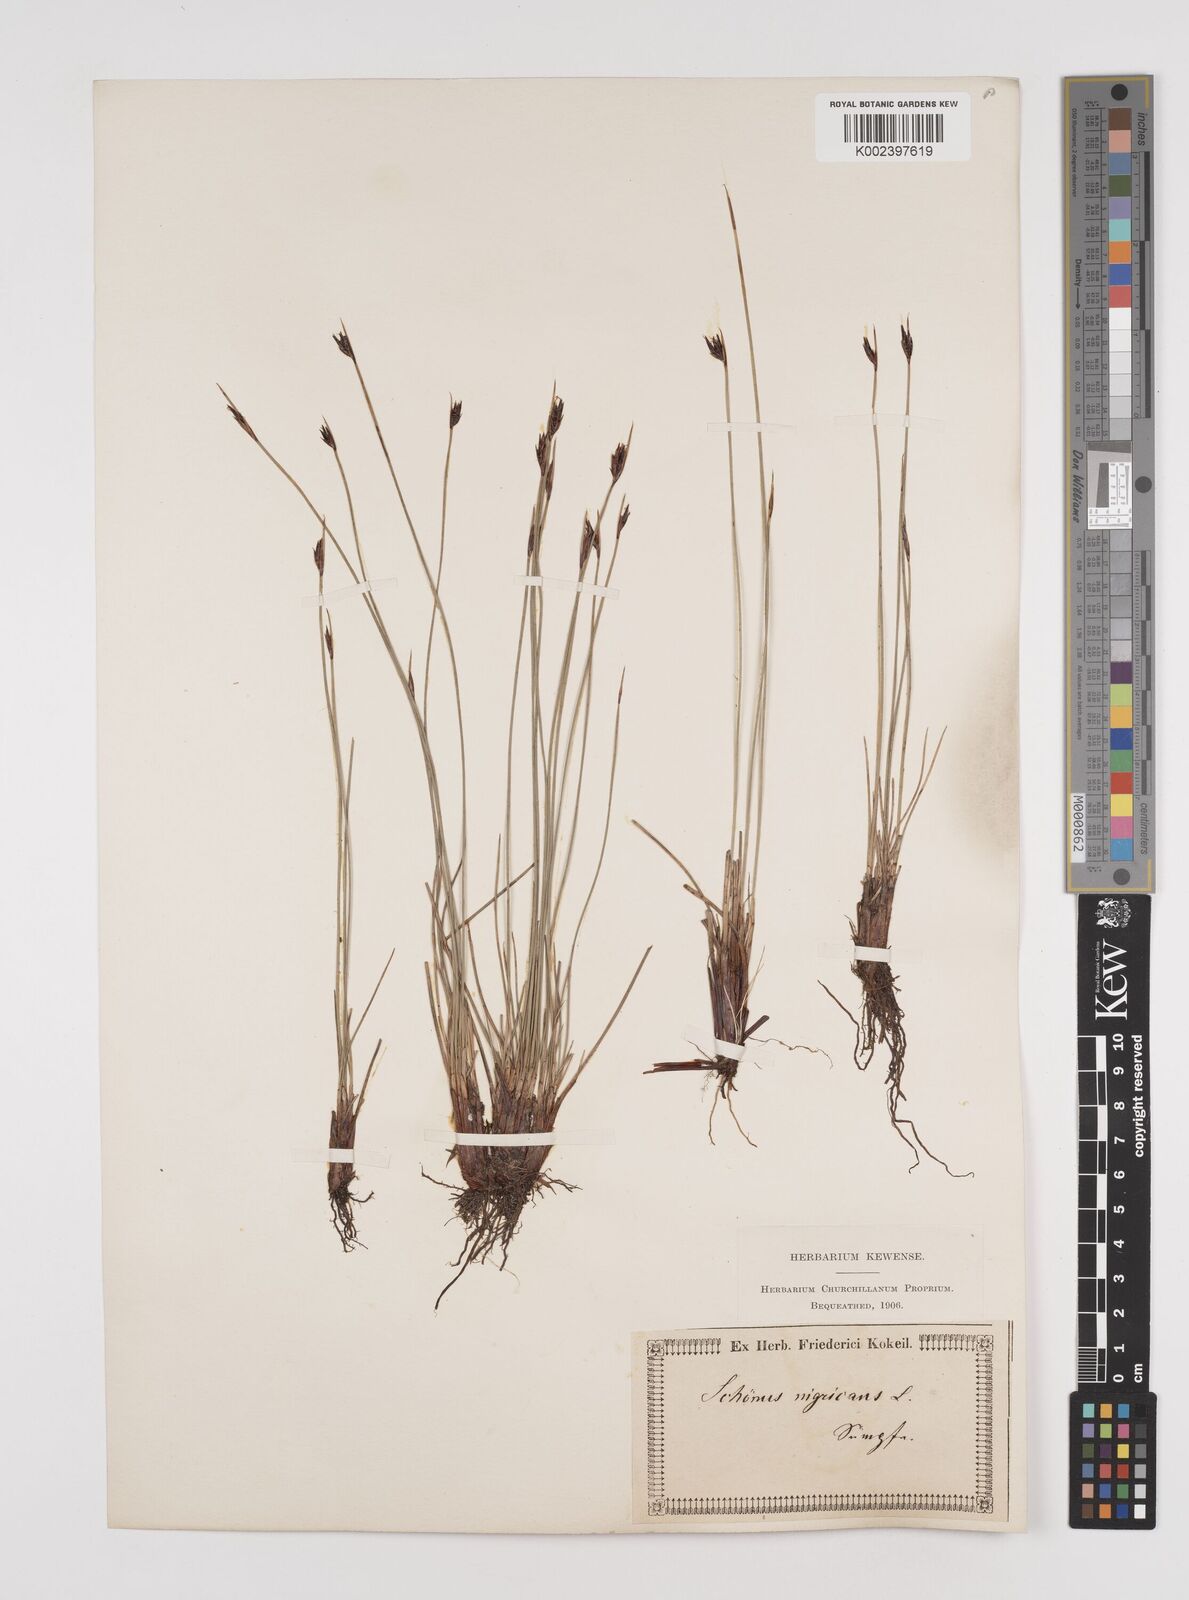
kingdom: Plantae
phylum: Tracheophyta
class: Liliopsida
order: Poales
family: Cyperaceae
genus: Schoenus
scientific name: Schoenus nigricans
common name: Black bog-rush
